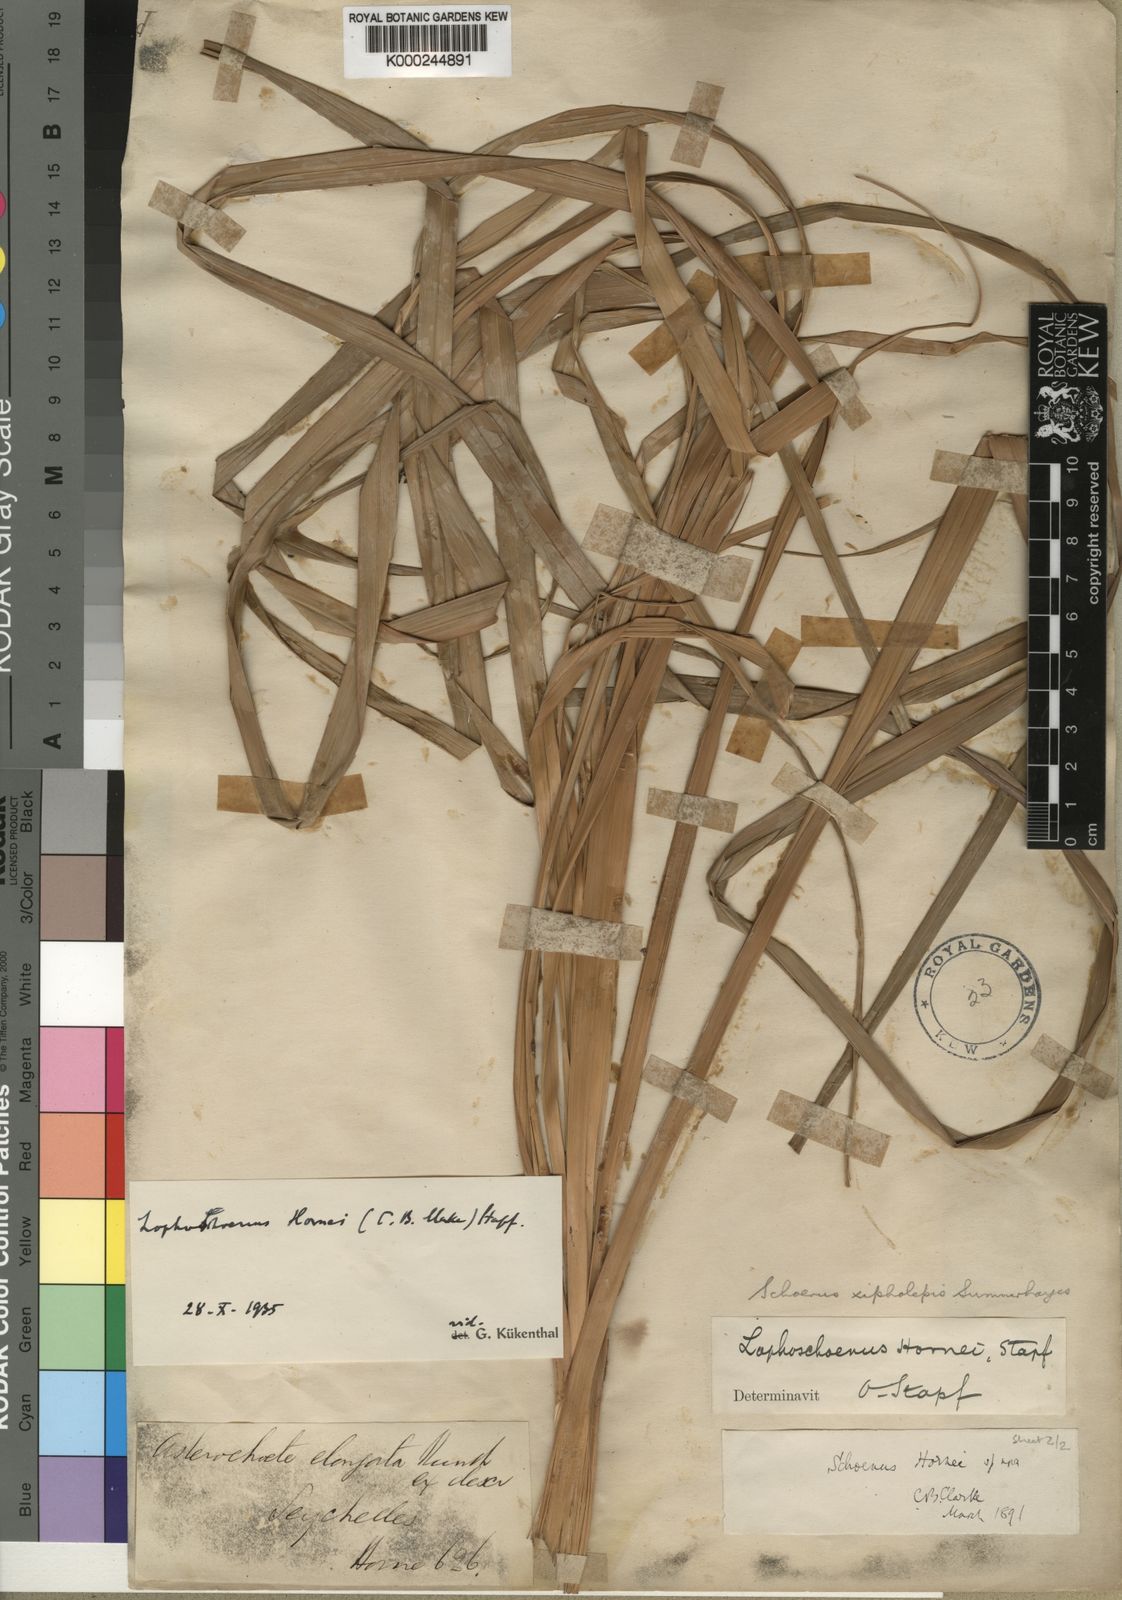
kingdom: Plantae
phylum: Tracheophyta
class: Liliopsida
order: Poales
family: Cyperaceae
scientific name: Cyperaceae
